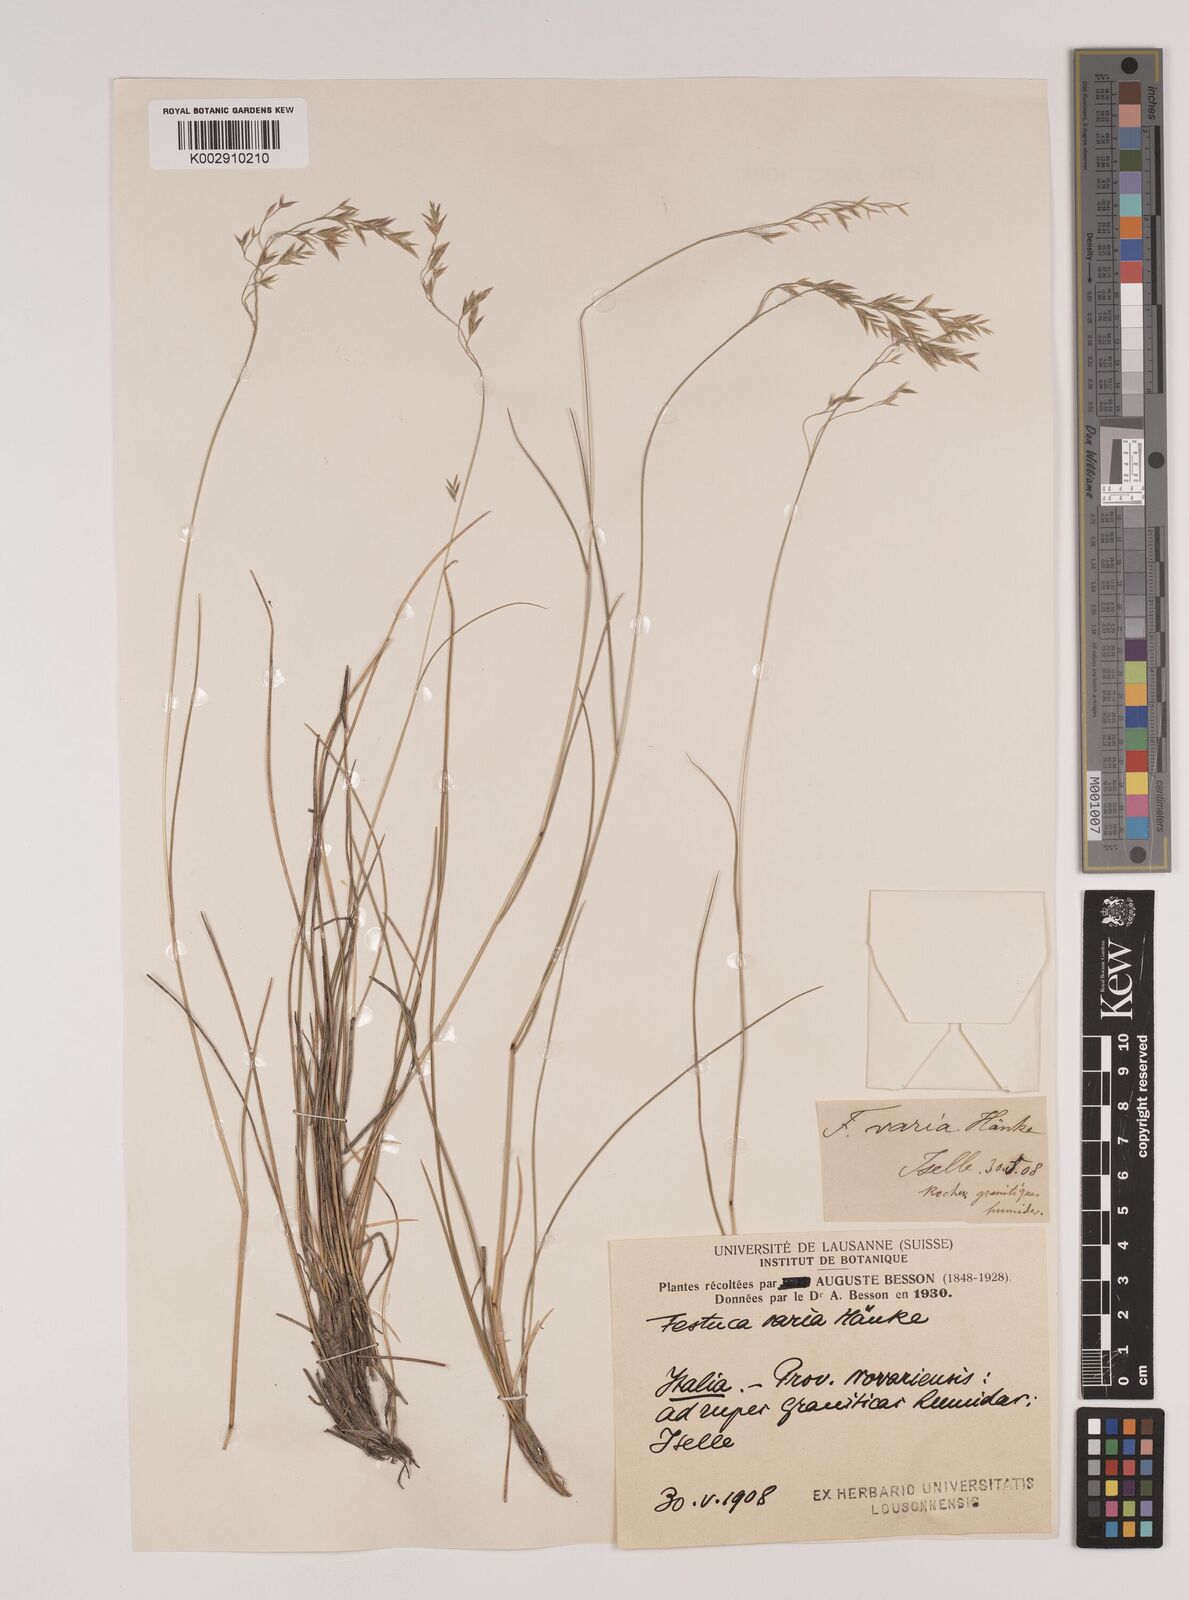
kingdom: Plantae
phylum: Tracheophyta
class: Liliopsida
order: Poales
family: Poaceae
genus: Festuca
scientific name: Festuca varia
